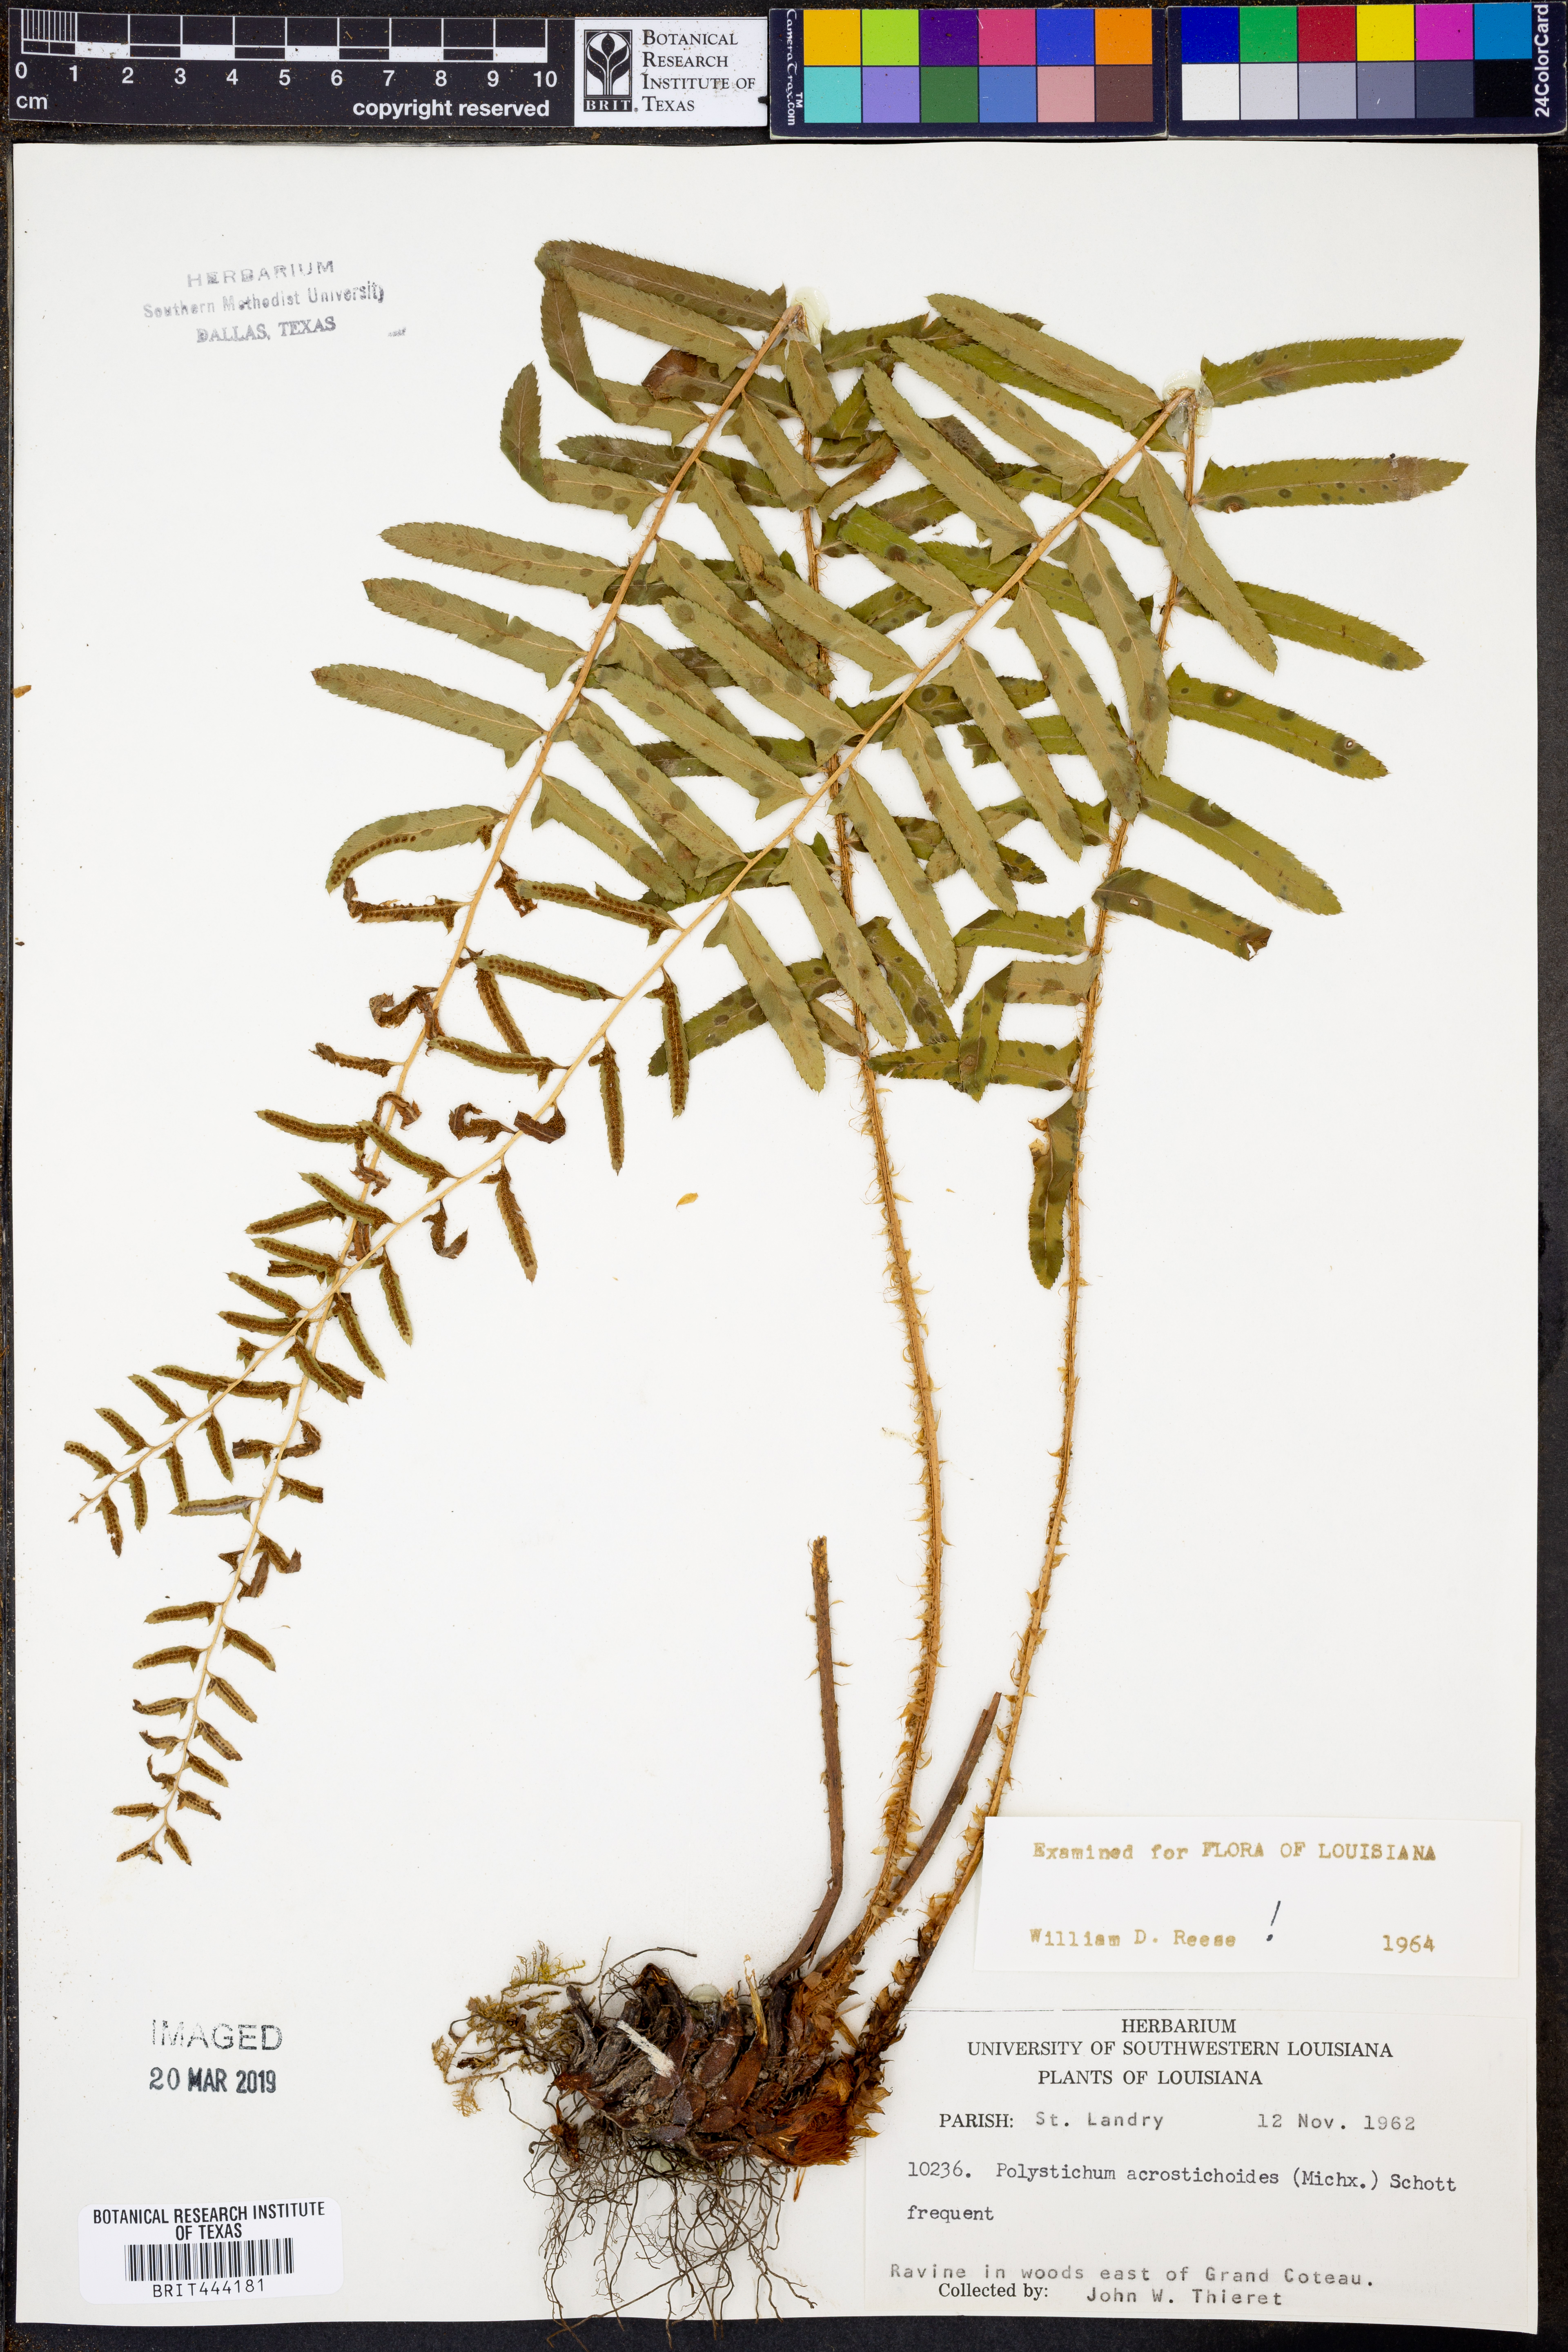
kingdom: Plantae
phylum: Tracheophyta
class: Polypodiopsida
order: Polypodiales
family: Dryopteridaceae
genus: Polystichum
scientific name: Polystichum acrostichoides
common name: Christmas fern
